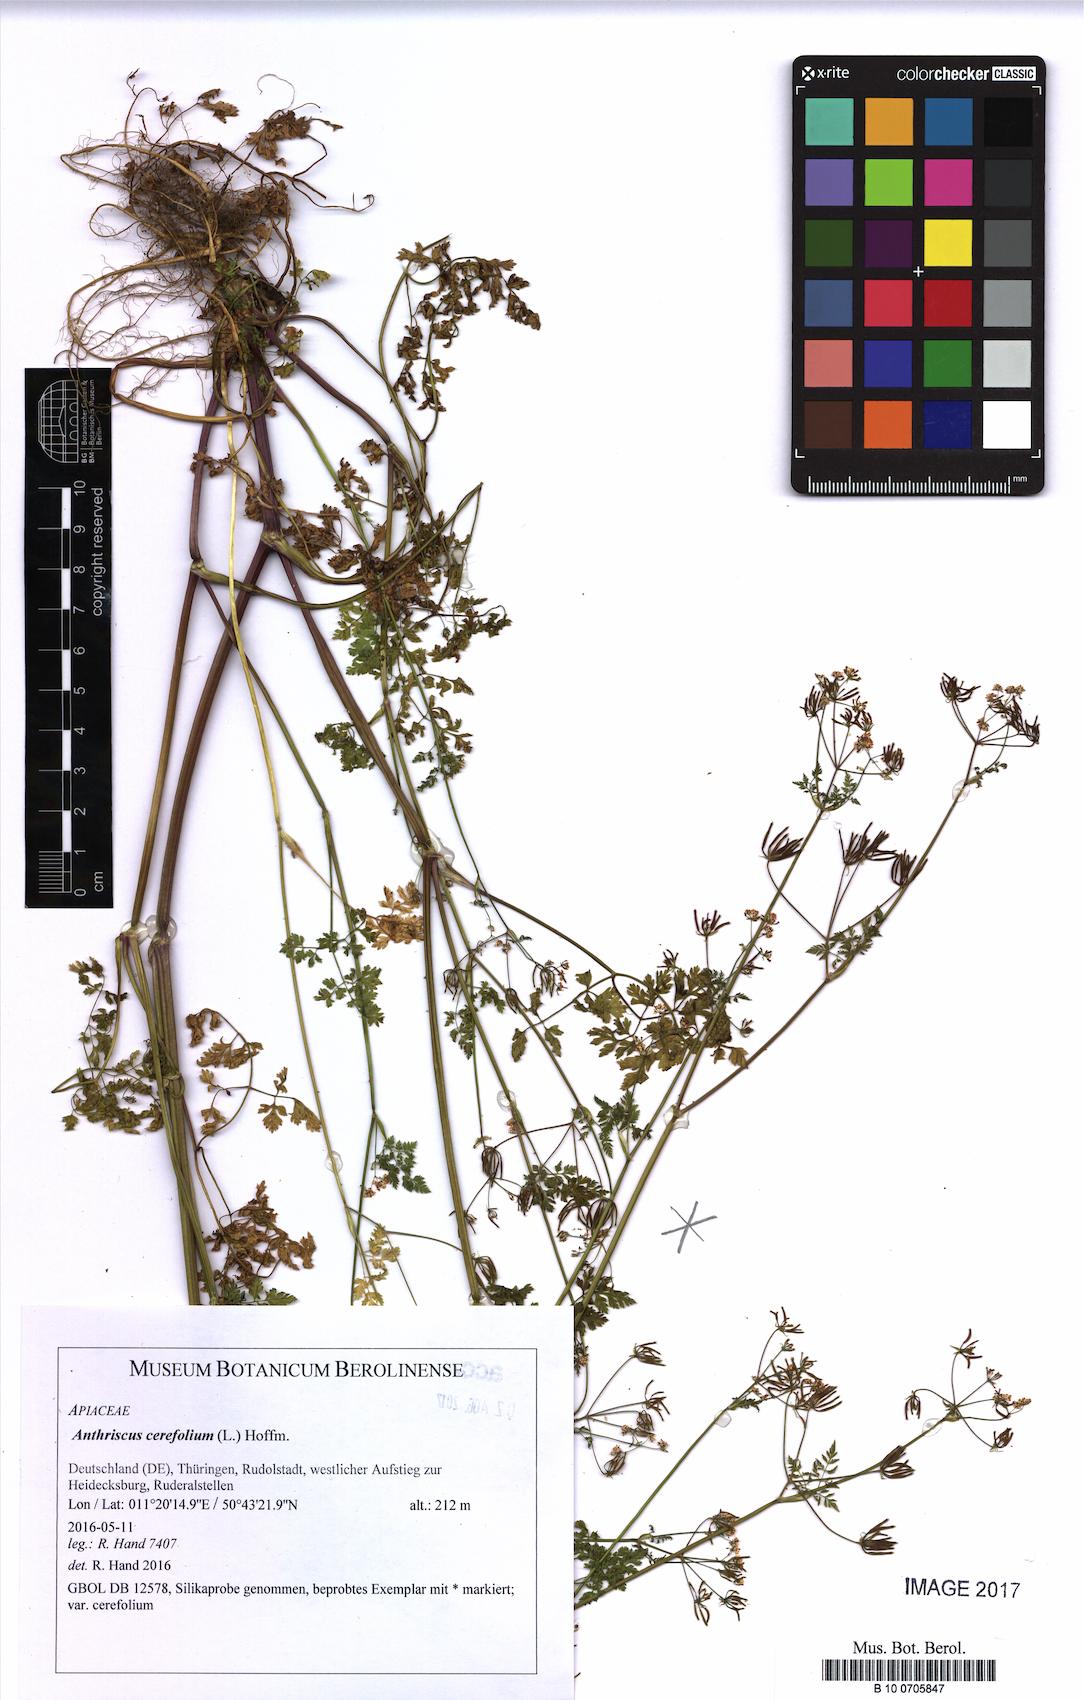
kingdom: Plantae
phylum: Tracheophyta
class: Magnoliopsida
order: Apiales
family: Apiaceae
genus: Anthriscus
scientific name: Anthriscus cerefolium
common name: Garden chervil
